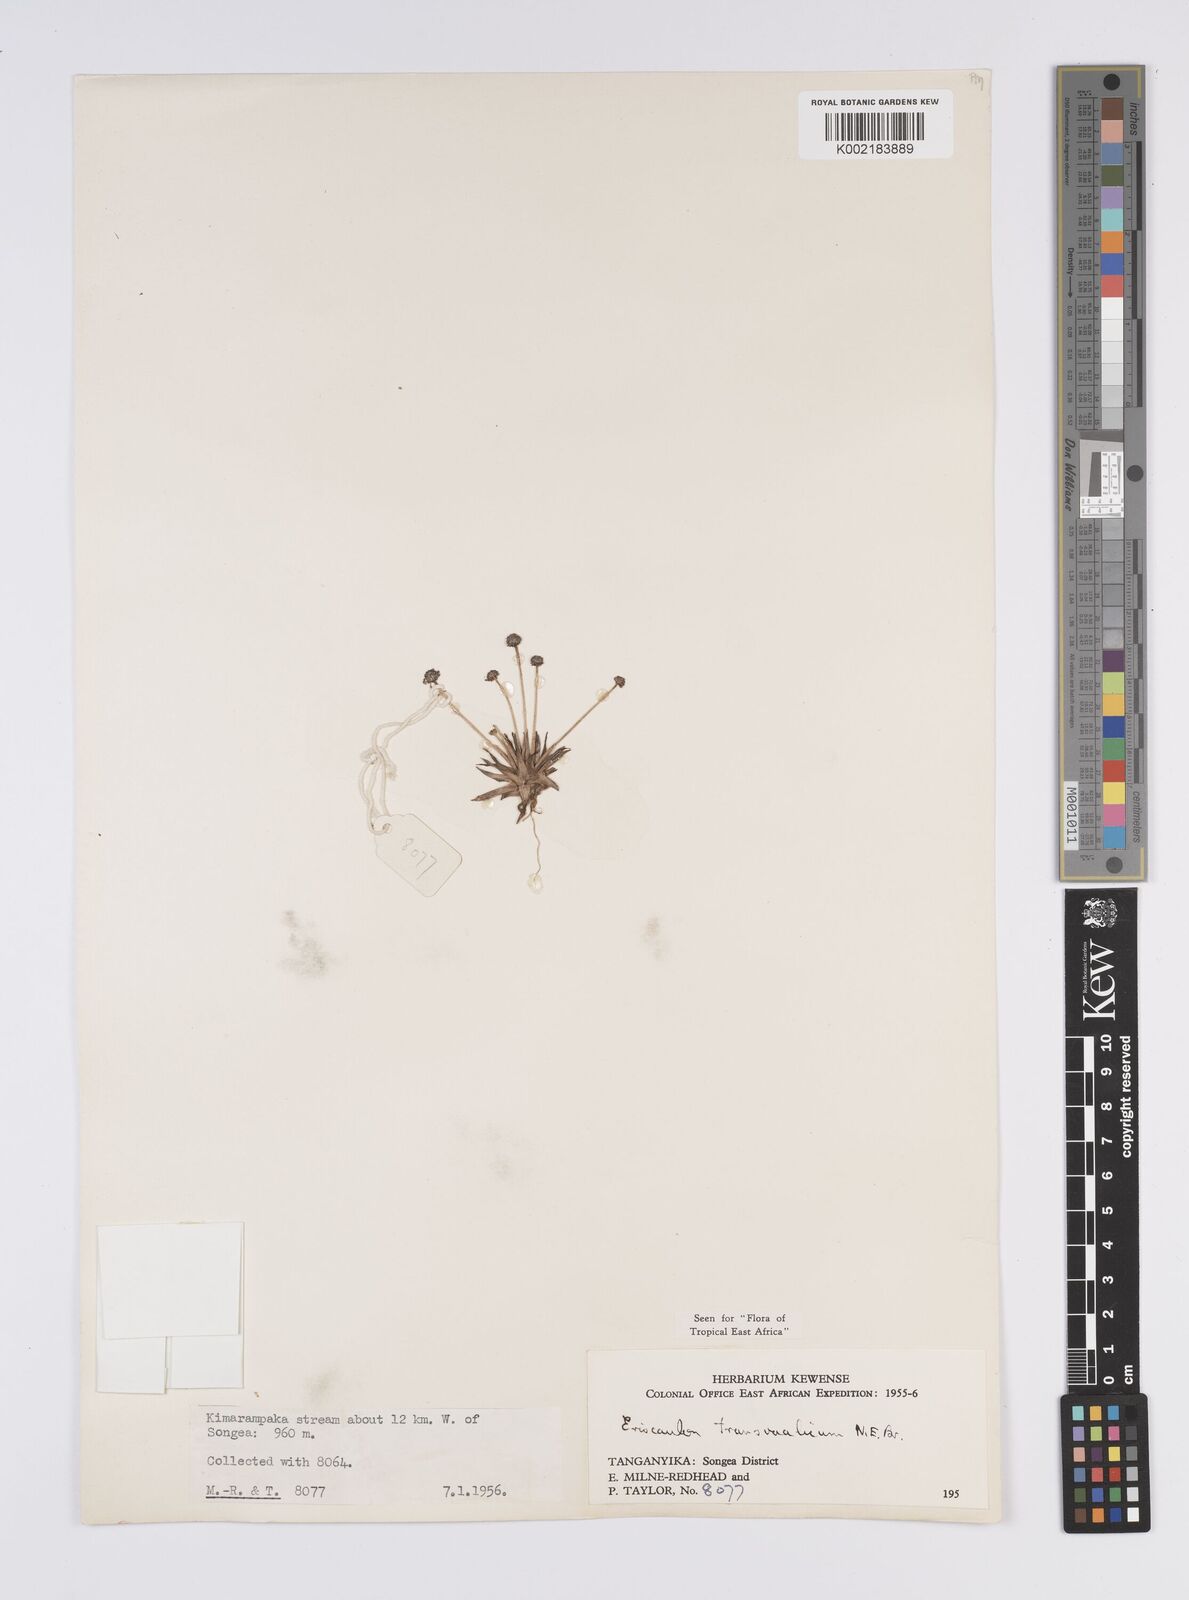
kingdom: Plantae
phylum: Tracheophyta
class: Liliopsida
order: Poales
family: Eriocaulaceae
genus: Eriocaulon
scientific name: Eriocaulon transvaalicum
